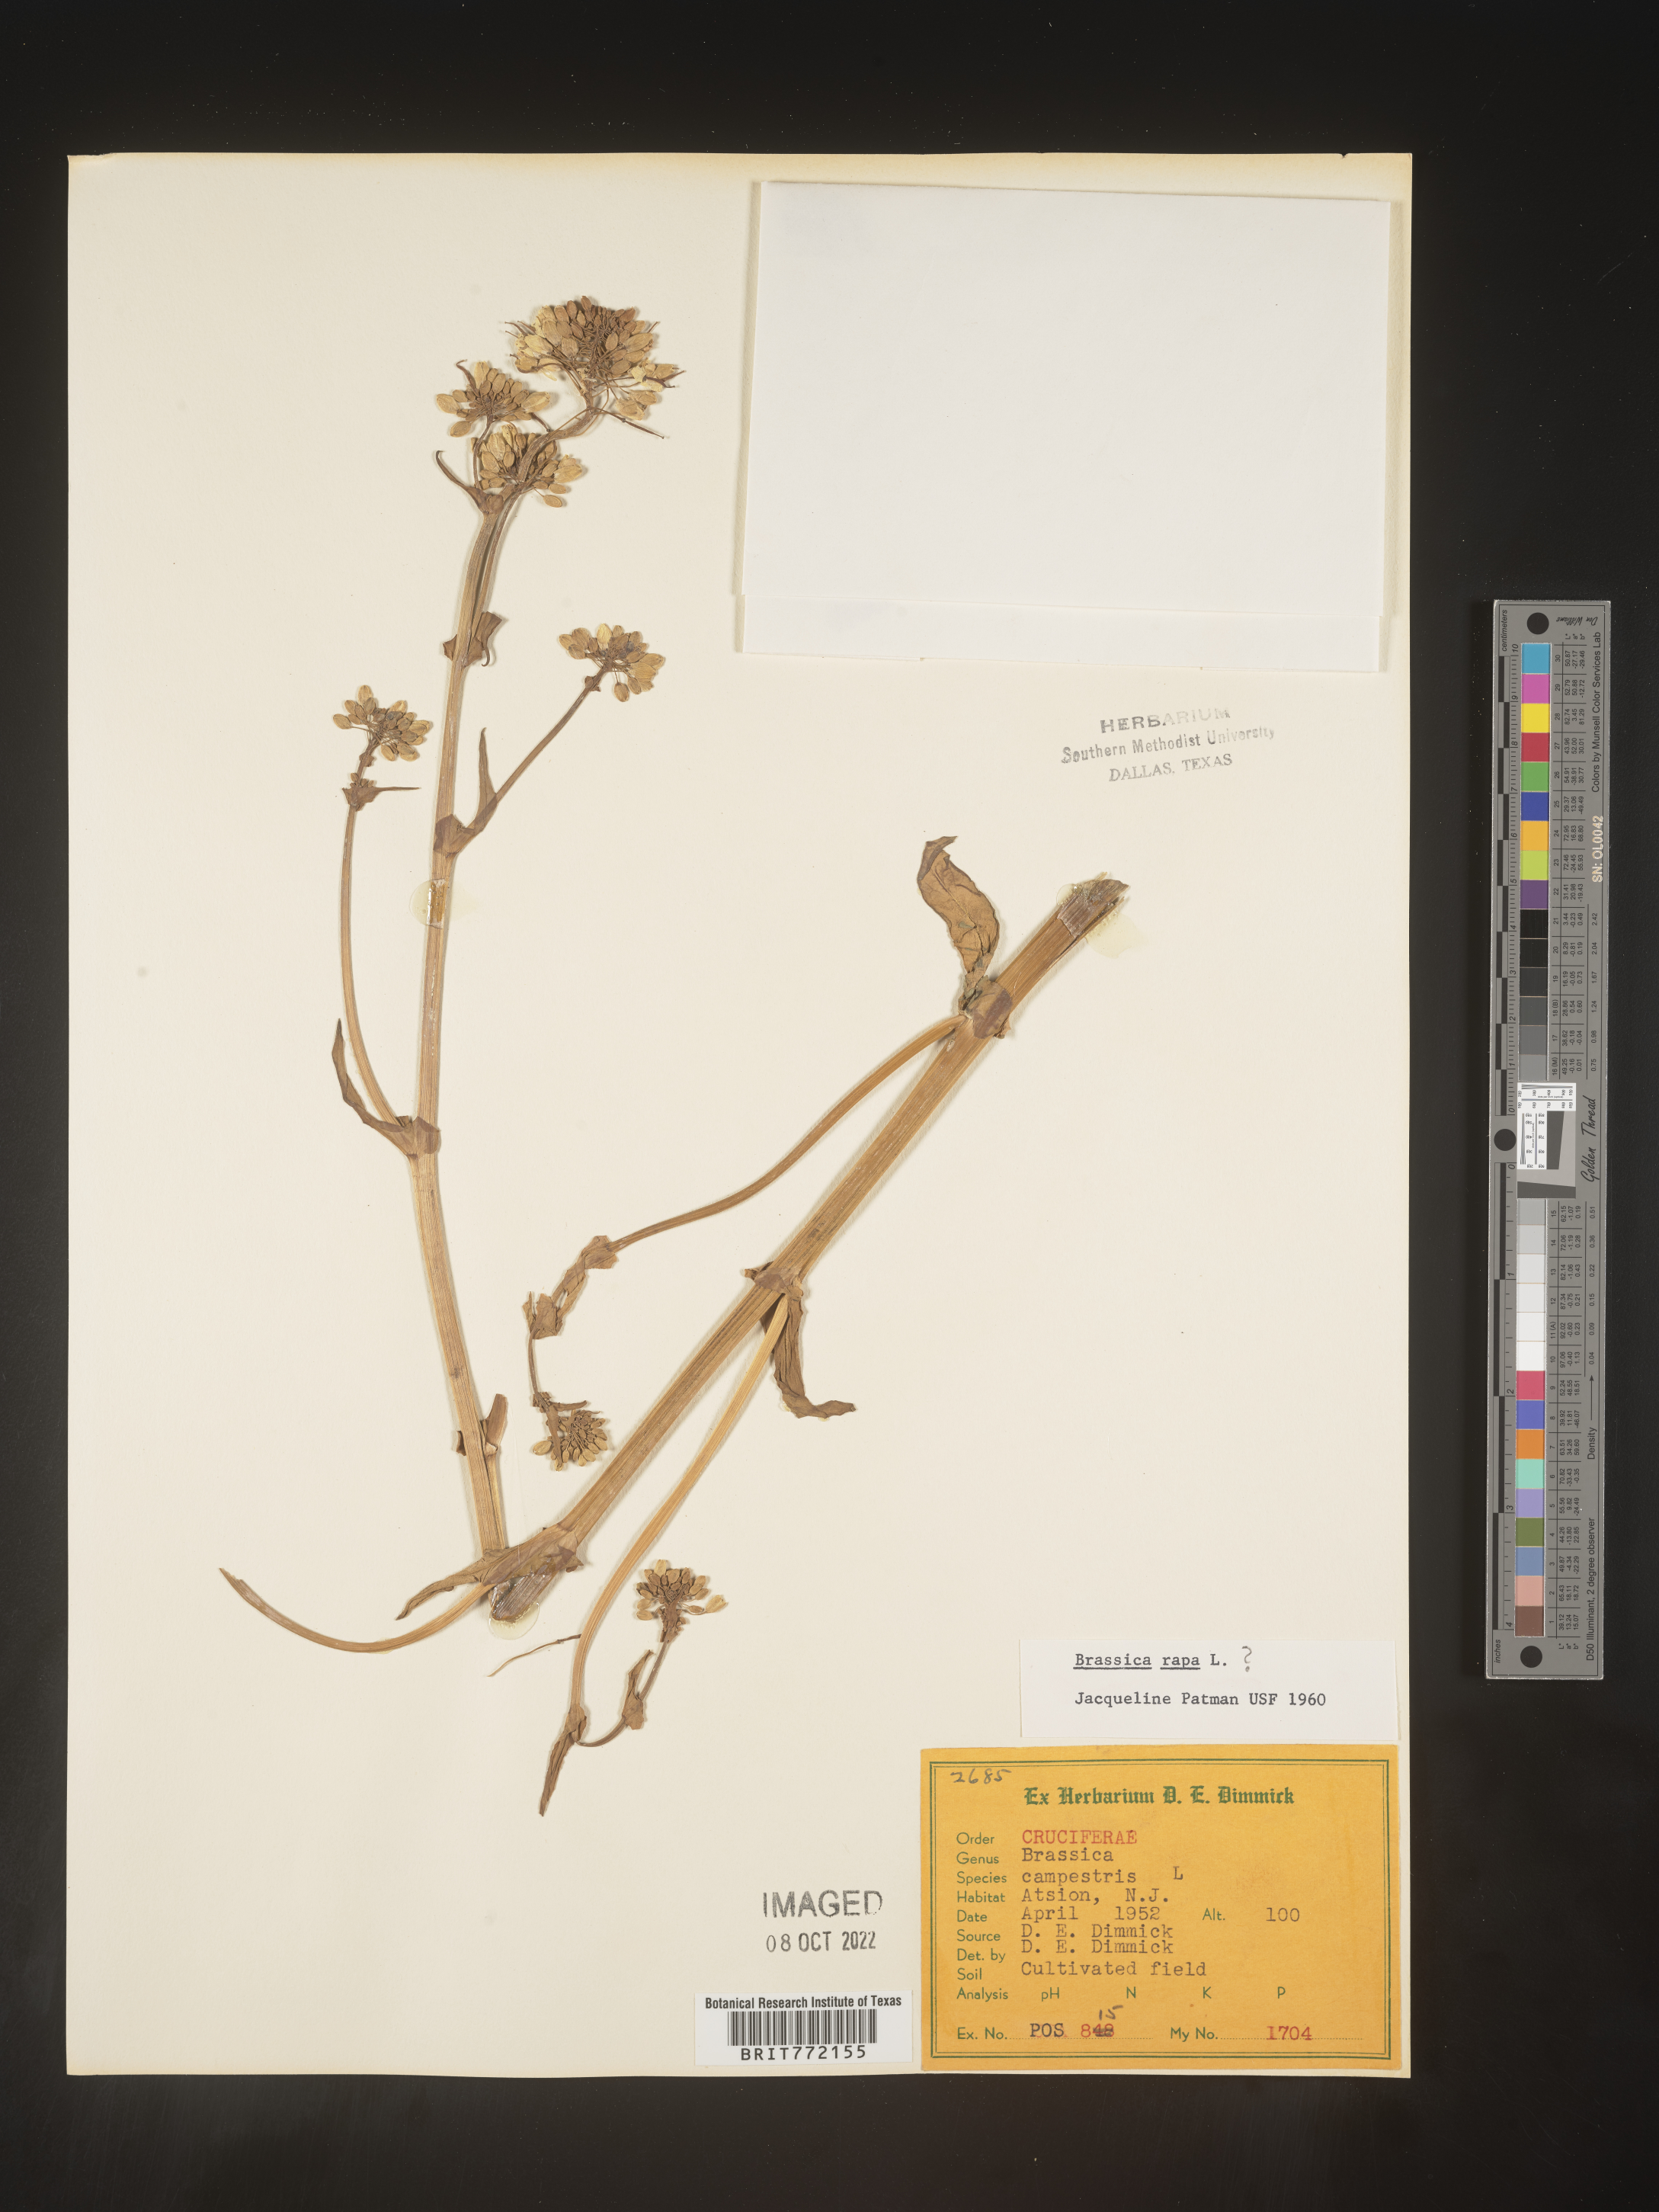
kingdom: Plantae
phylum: Tracheophyta
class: Magnoliopsida
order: Brassicales
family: Brassicaceae
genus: Brassica
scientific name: Brassica rapa
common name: Field mustard
